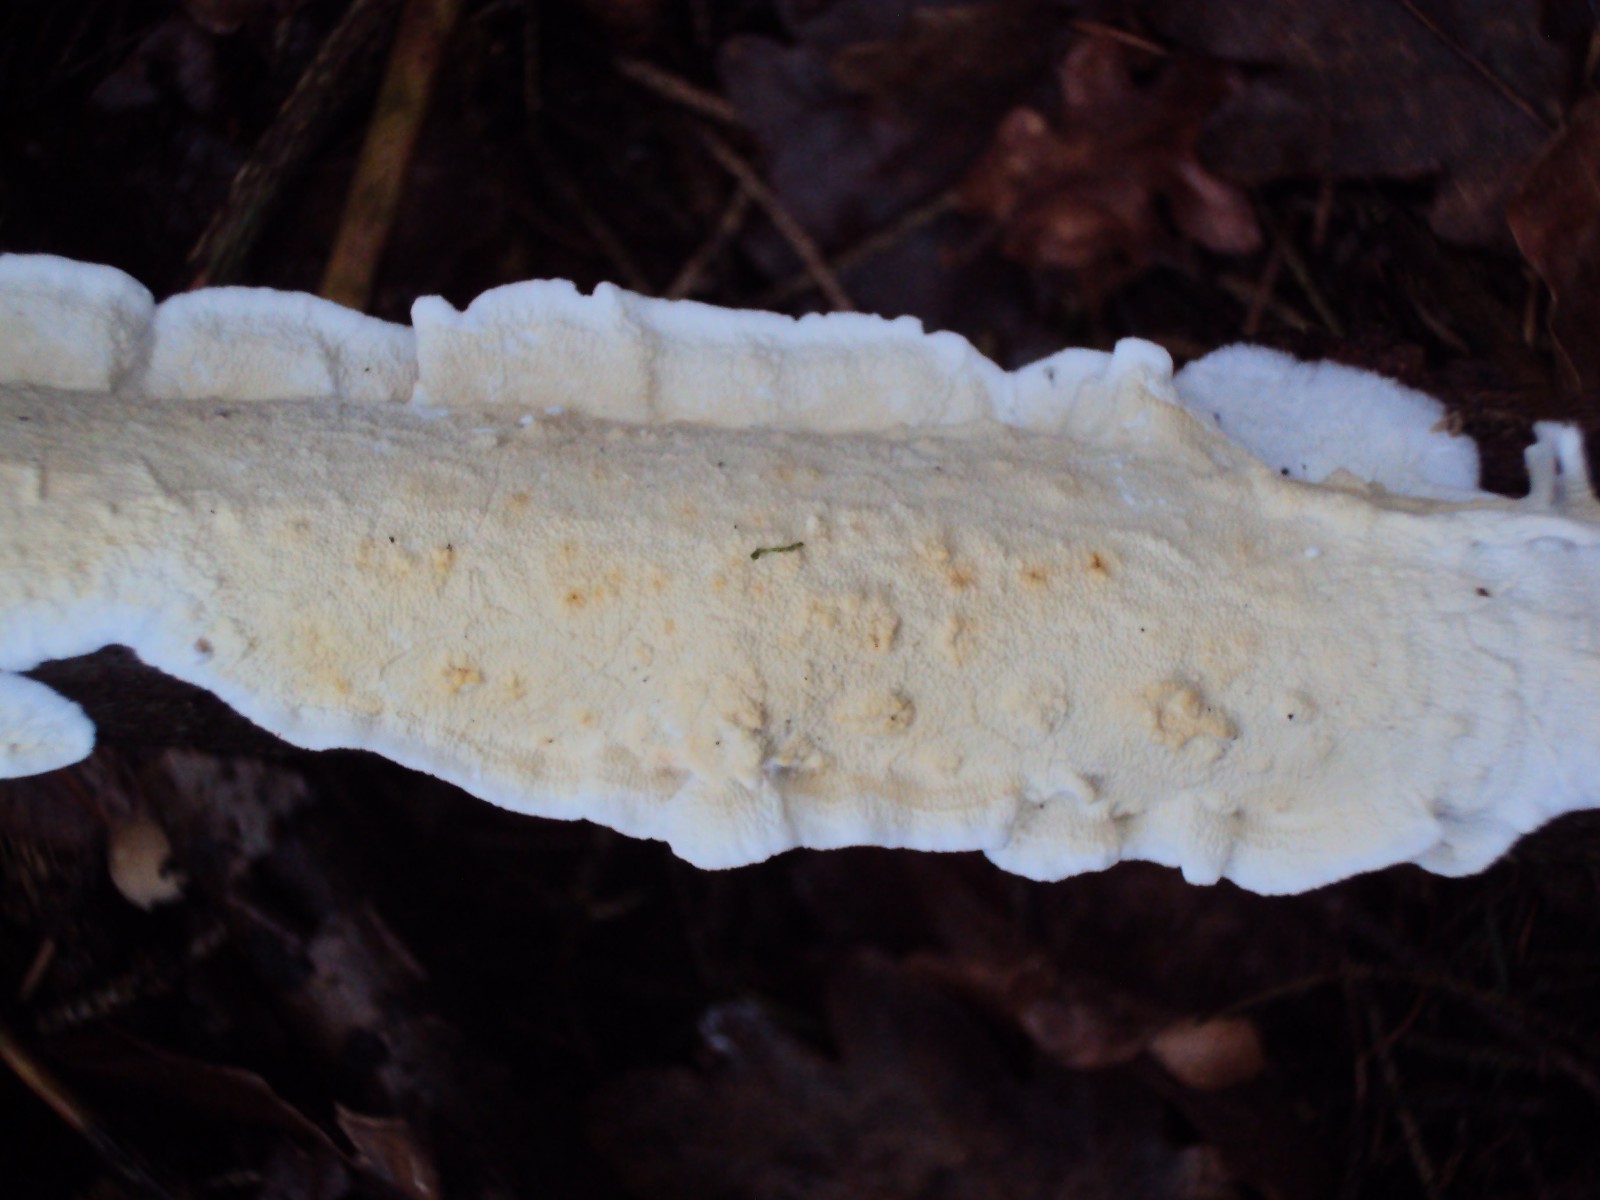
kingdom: Fungi
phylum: Basidiomycota
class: Agaricomycetes
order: Polyporales
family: Irpicaceae
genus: Byssomerulius
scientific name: Byssomerulius corium
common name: læder-åresvamp
